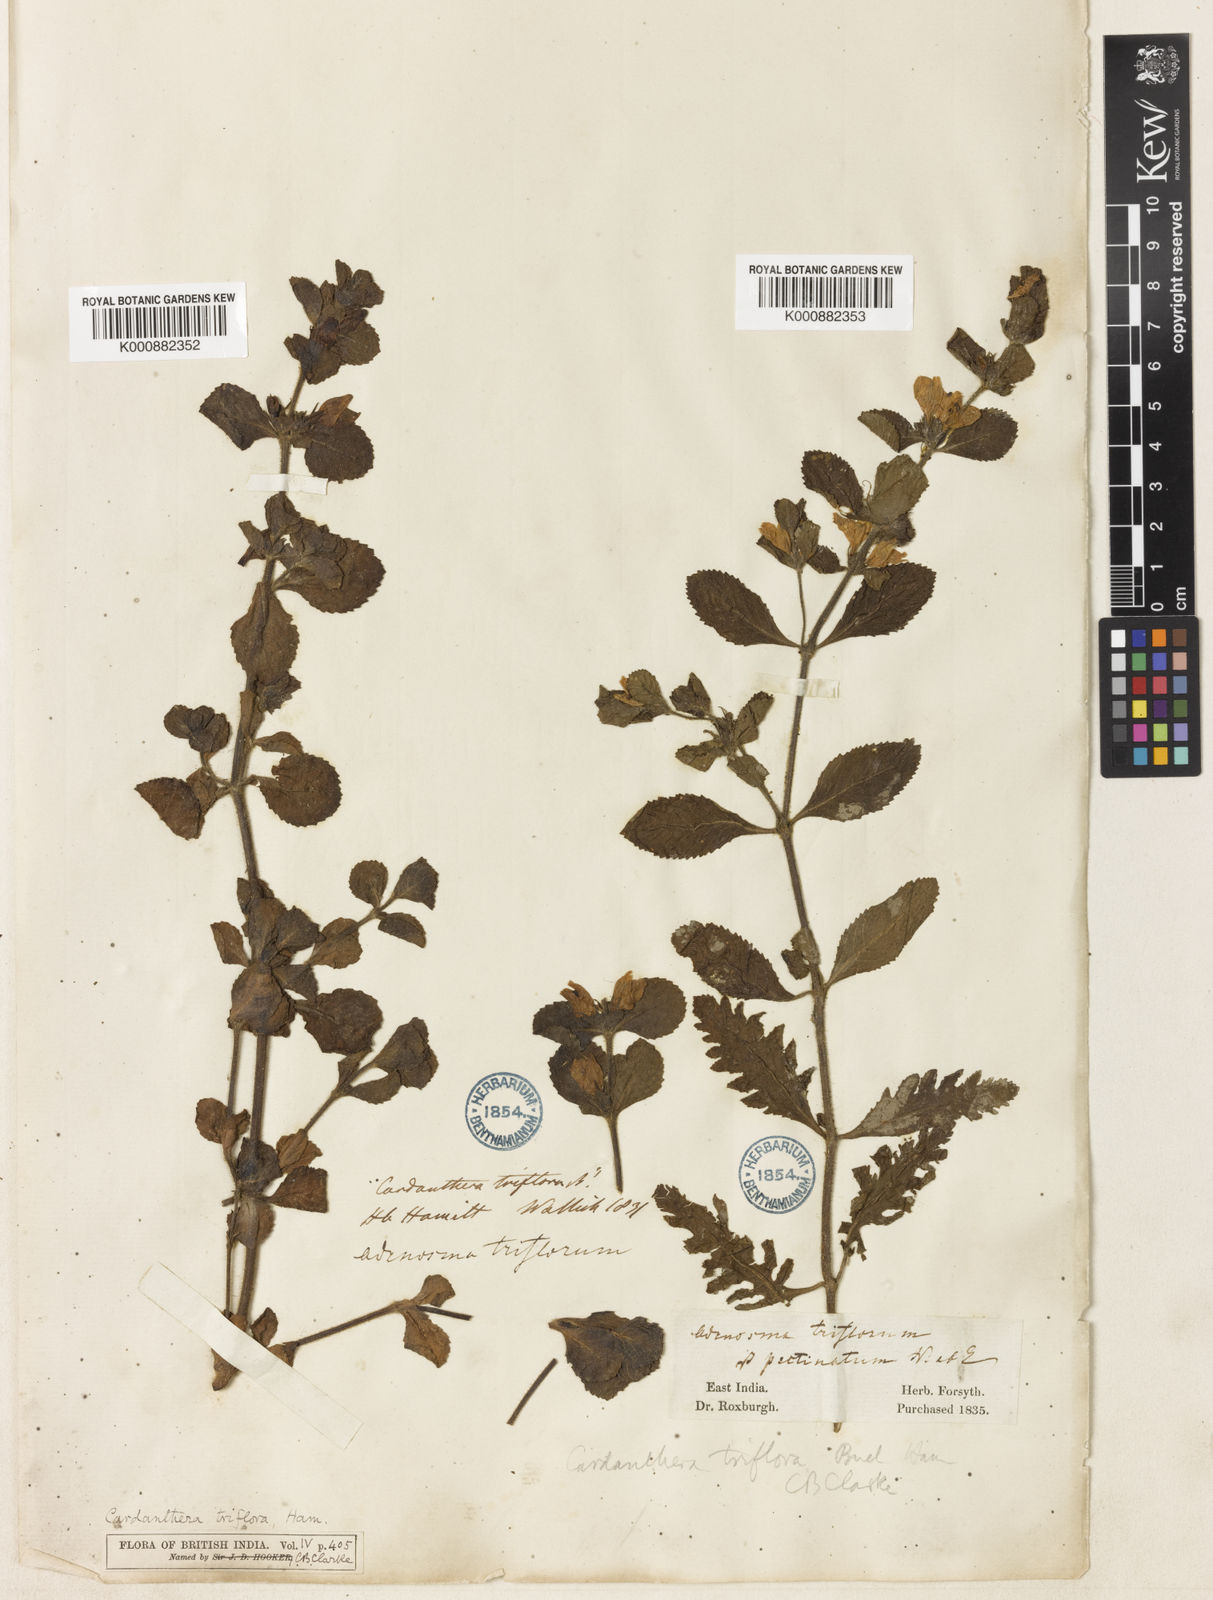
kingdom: Plantae
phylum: Tracheophyta
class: Magnoliopsida
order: Lamiales
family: Acanthaceae
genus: Hygrophila
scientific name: Hygrophila difformis
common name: Water-wisteria
